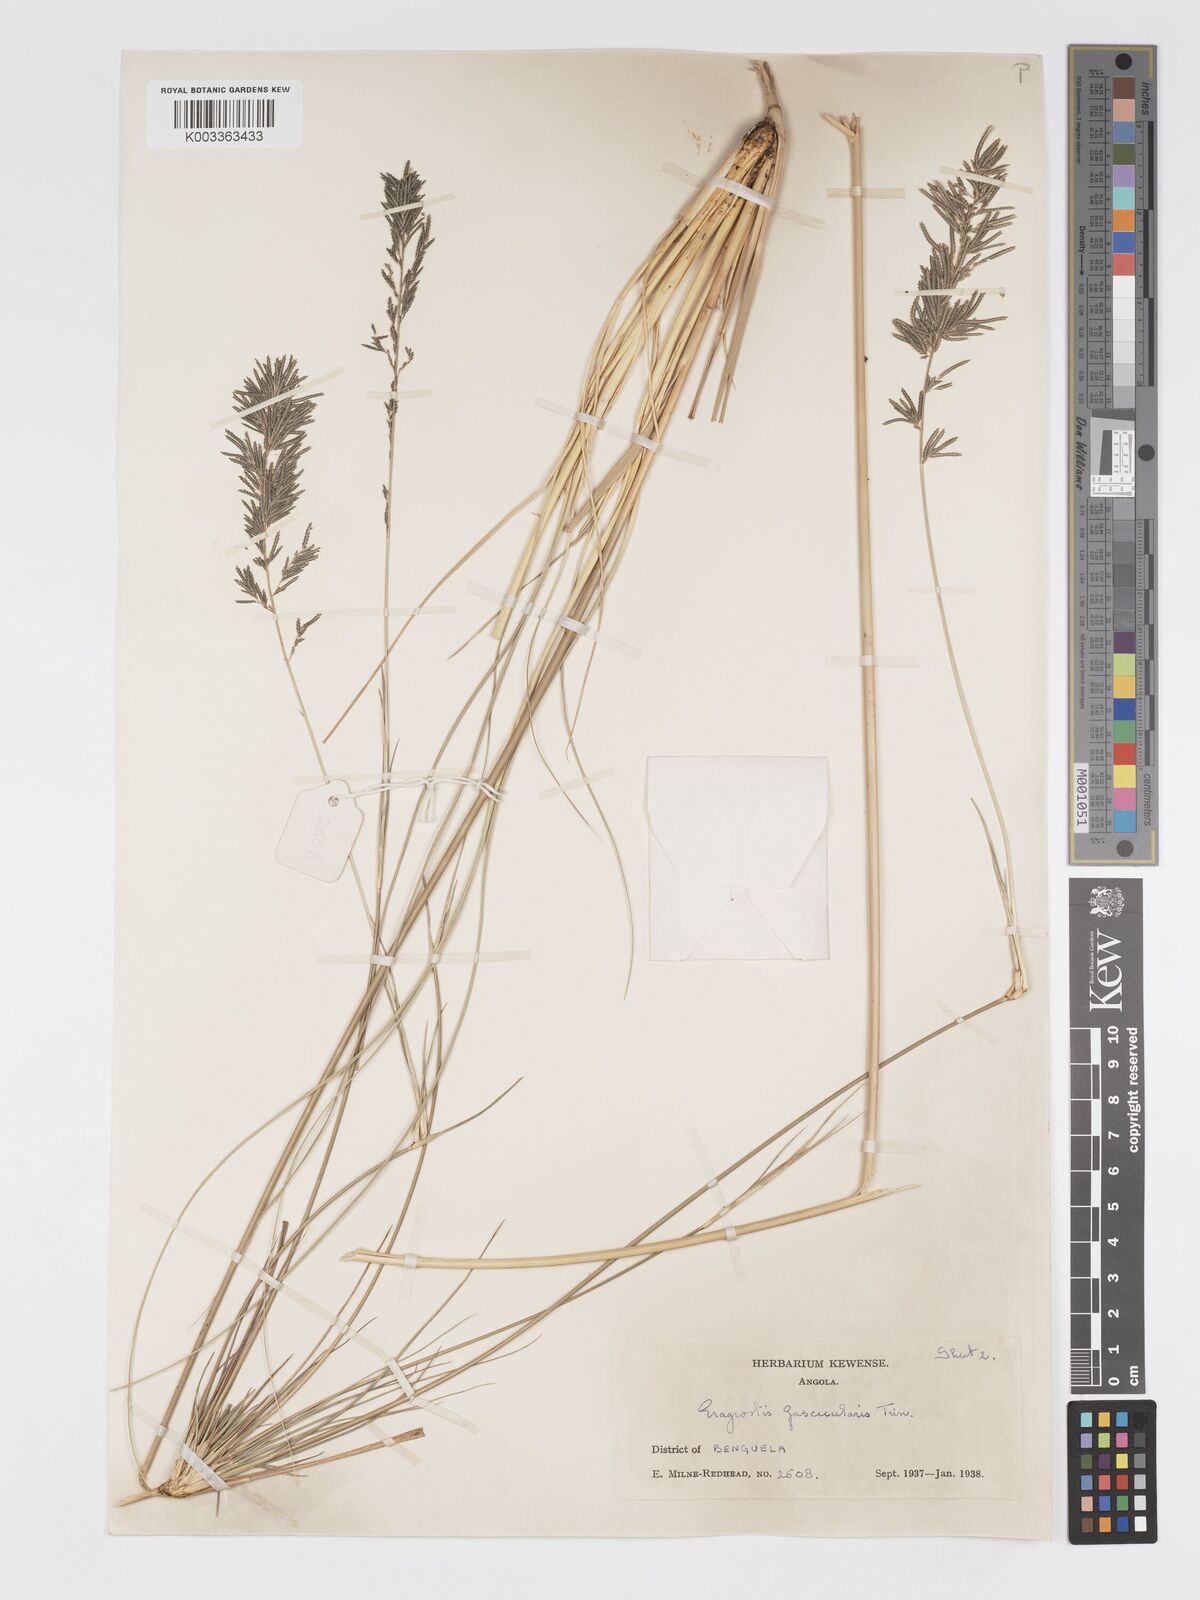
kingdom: Plantae
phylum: Tracheophyta
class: Liliopsida
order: Poales
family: Poaceae
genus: Eragrostis
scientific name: Eragrostis prolifera
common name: Dominican lovegrass
